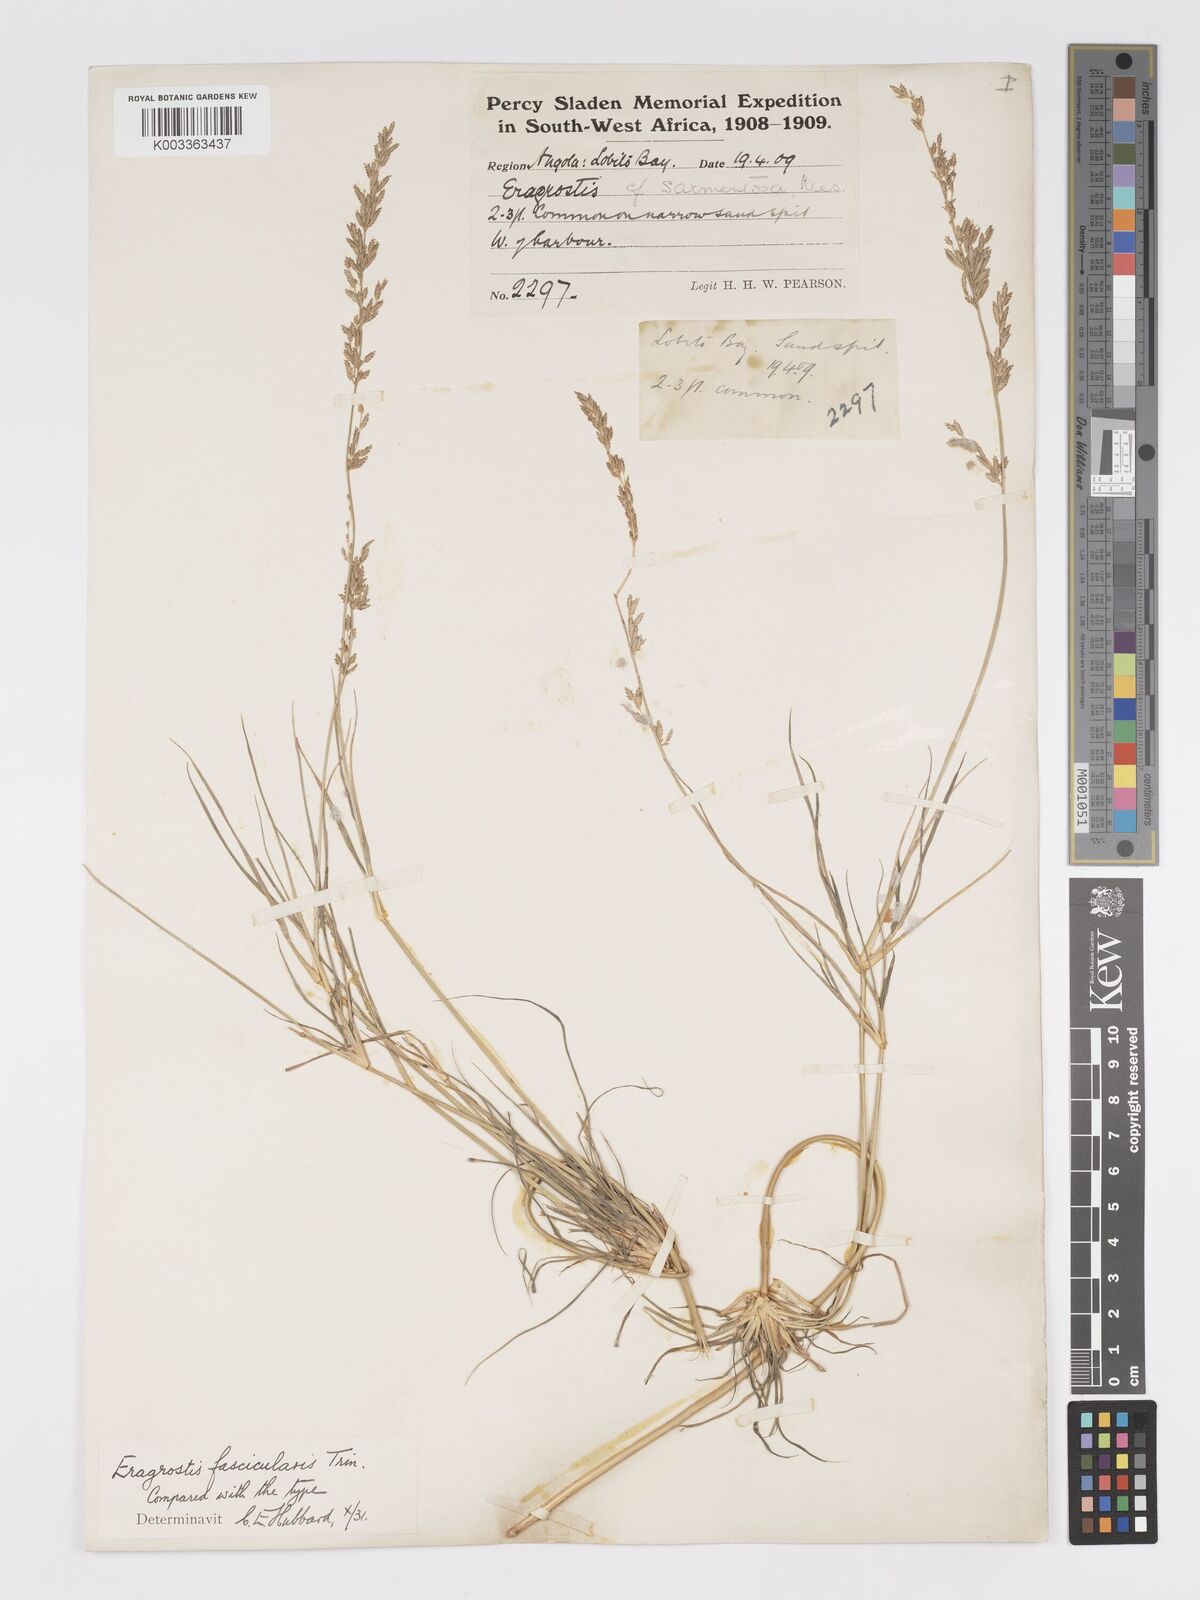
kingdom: Plantae
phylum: Tracheophyta
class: Liliopsida
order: Poales
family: Poaceae
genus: Eragrostis
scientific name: Eragrostis prolifera
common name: Dominican lovegrass
